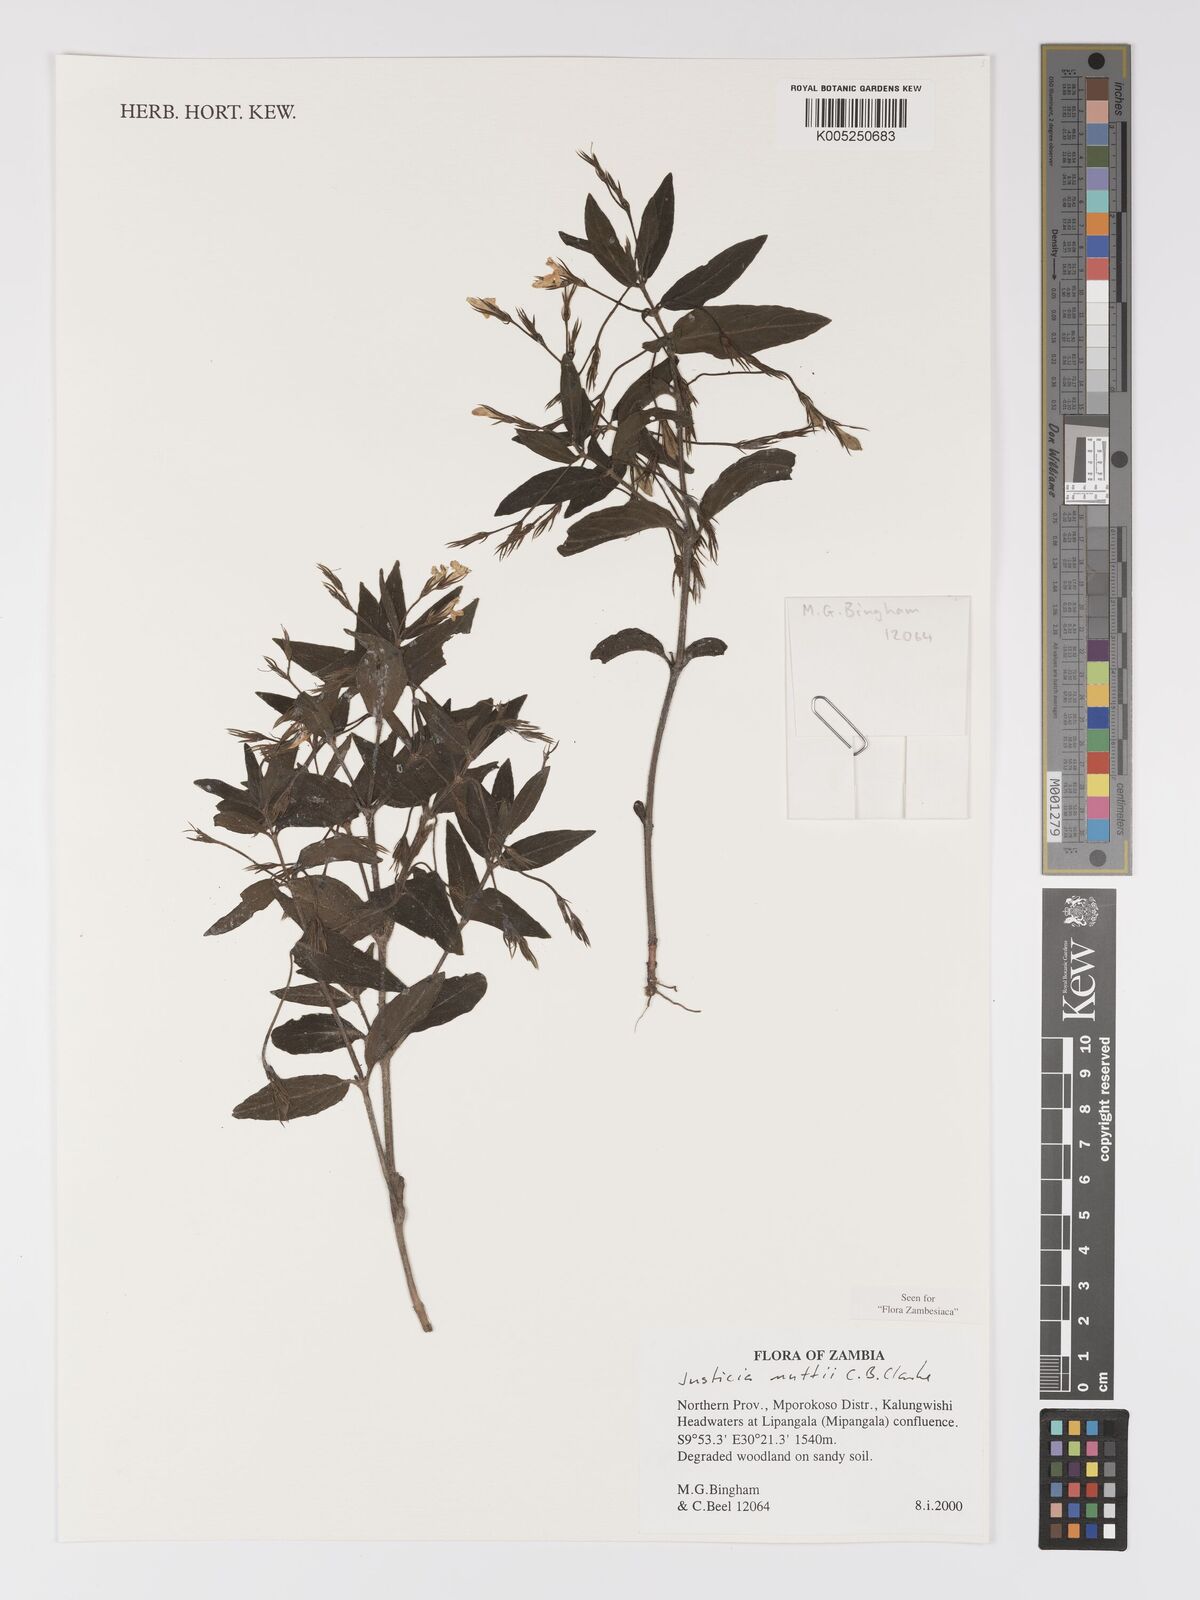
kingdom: Plantae
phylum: Tracheophyta
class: Magnoliopsida
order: Lamiales
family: Acanthaceae
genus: Justicia
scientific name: Justicia nuttii
